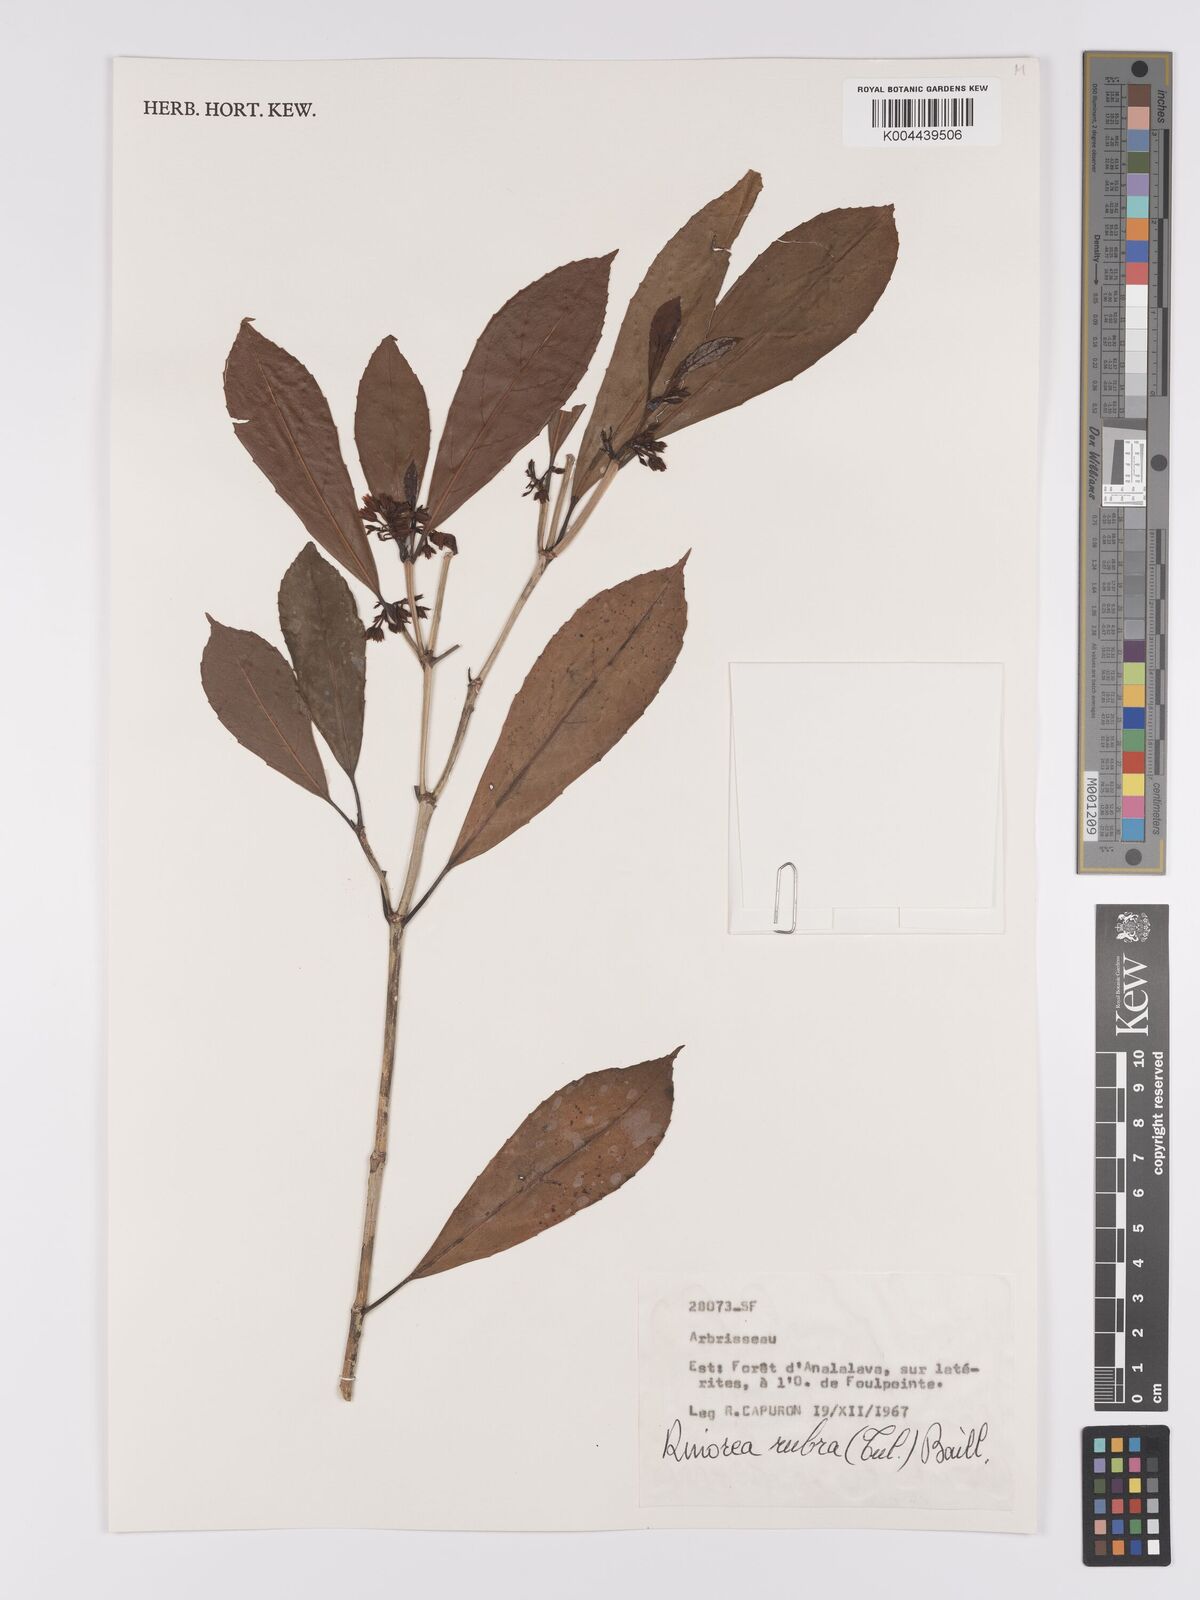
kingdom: Plantae
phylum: Tracheophyta
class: Magnoliopsida
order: Malpighiales
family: Violaceae
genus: Rinorea
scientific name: Rinorea rubra
